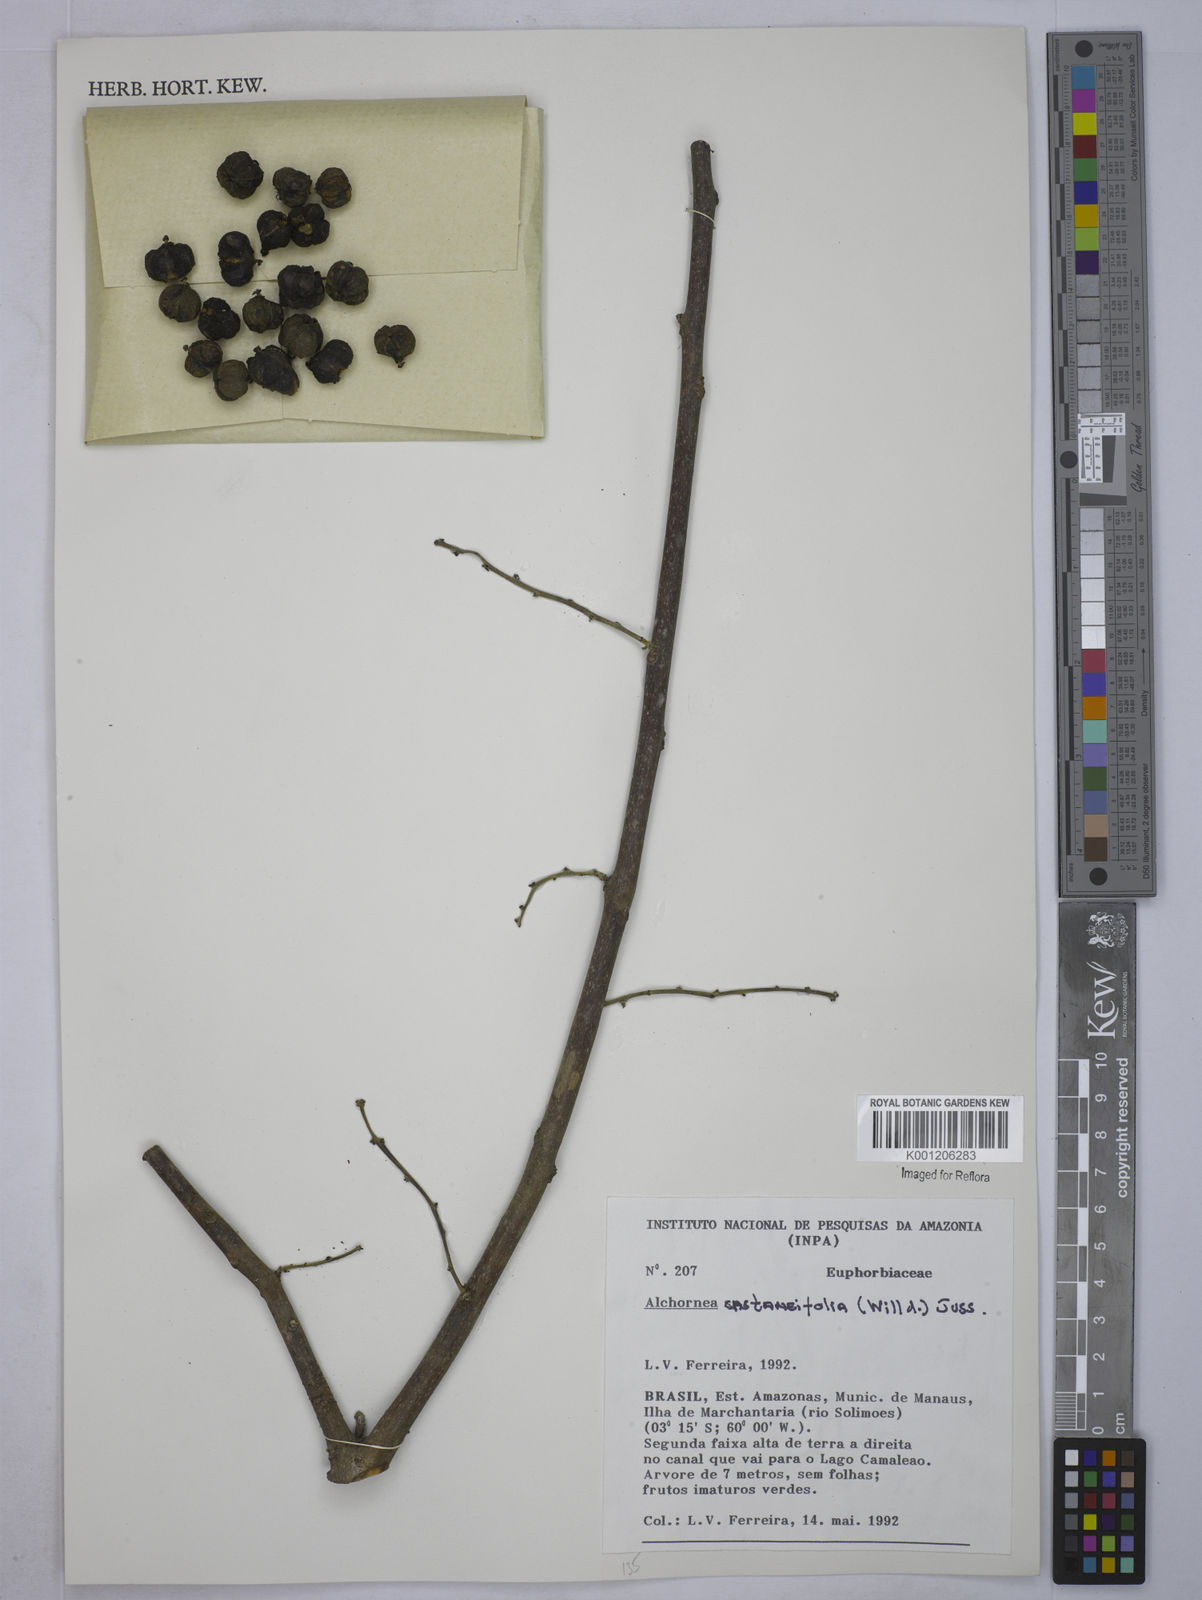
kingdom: Plantae
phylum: Tracheophyta
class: Magnoliopsida
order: Malpighiales
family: Euphorbiaceae
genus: Alchornea
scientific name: Alchornea castaneifolia
